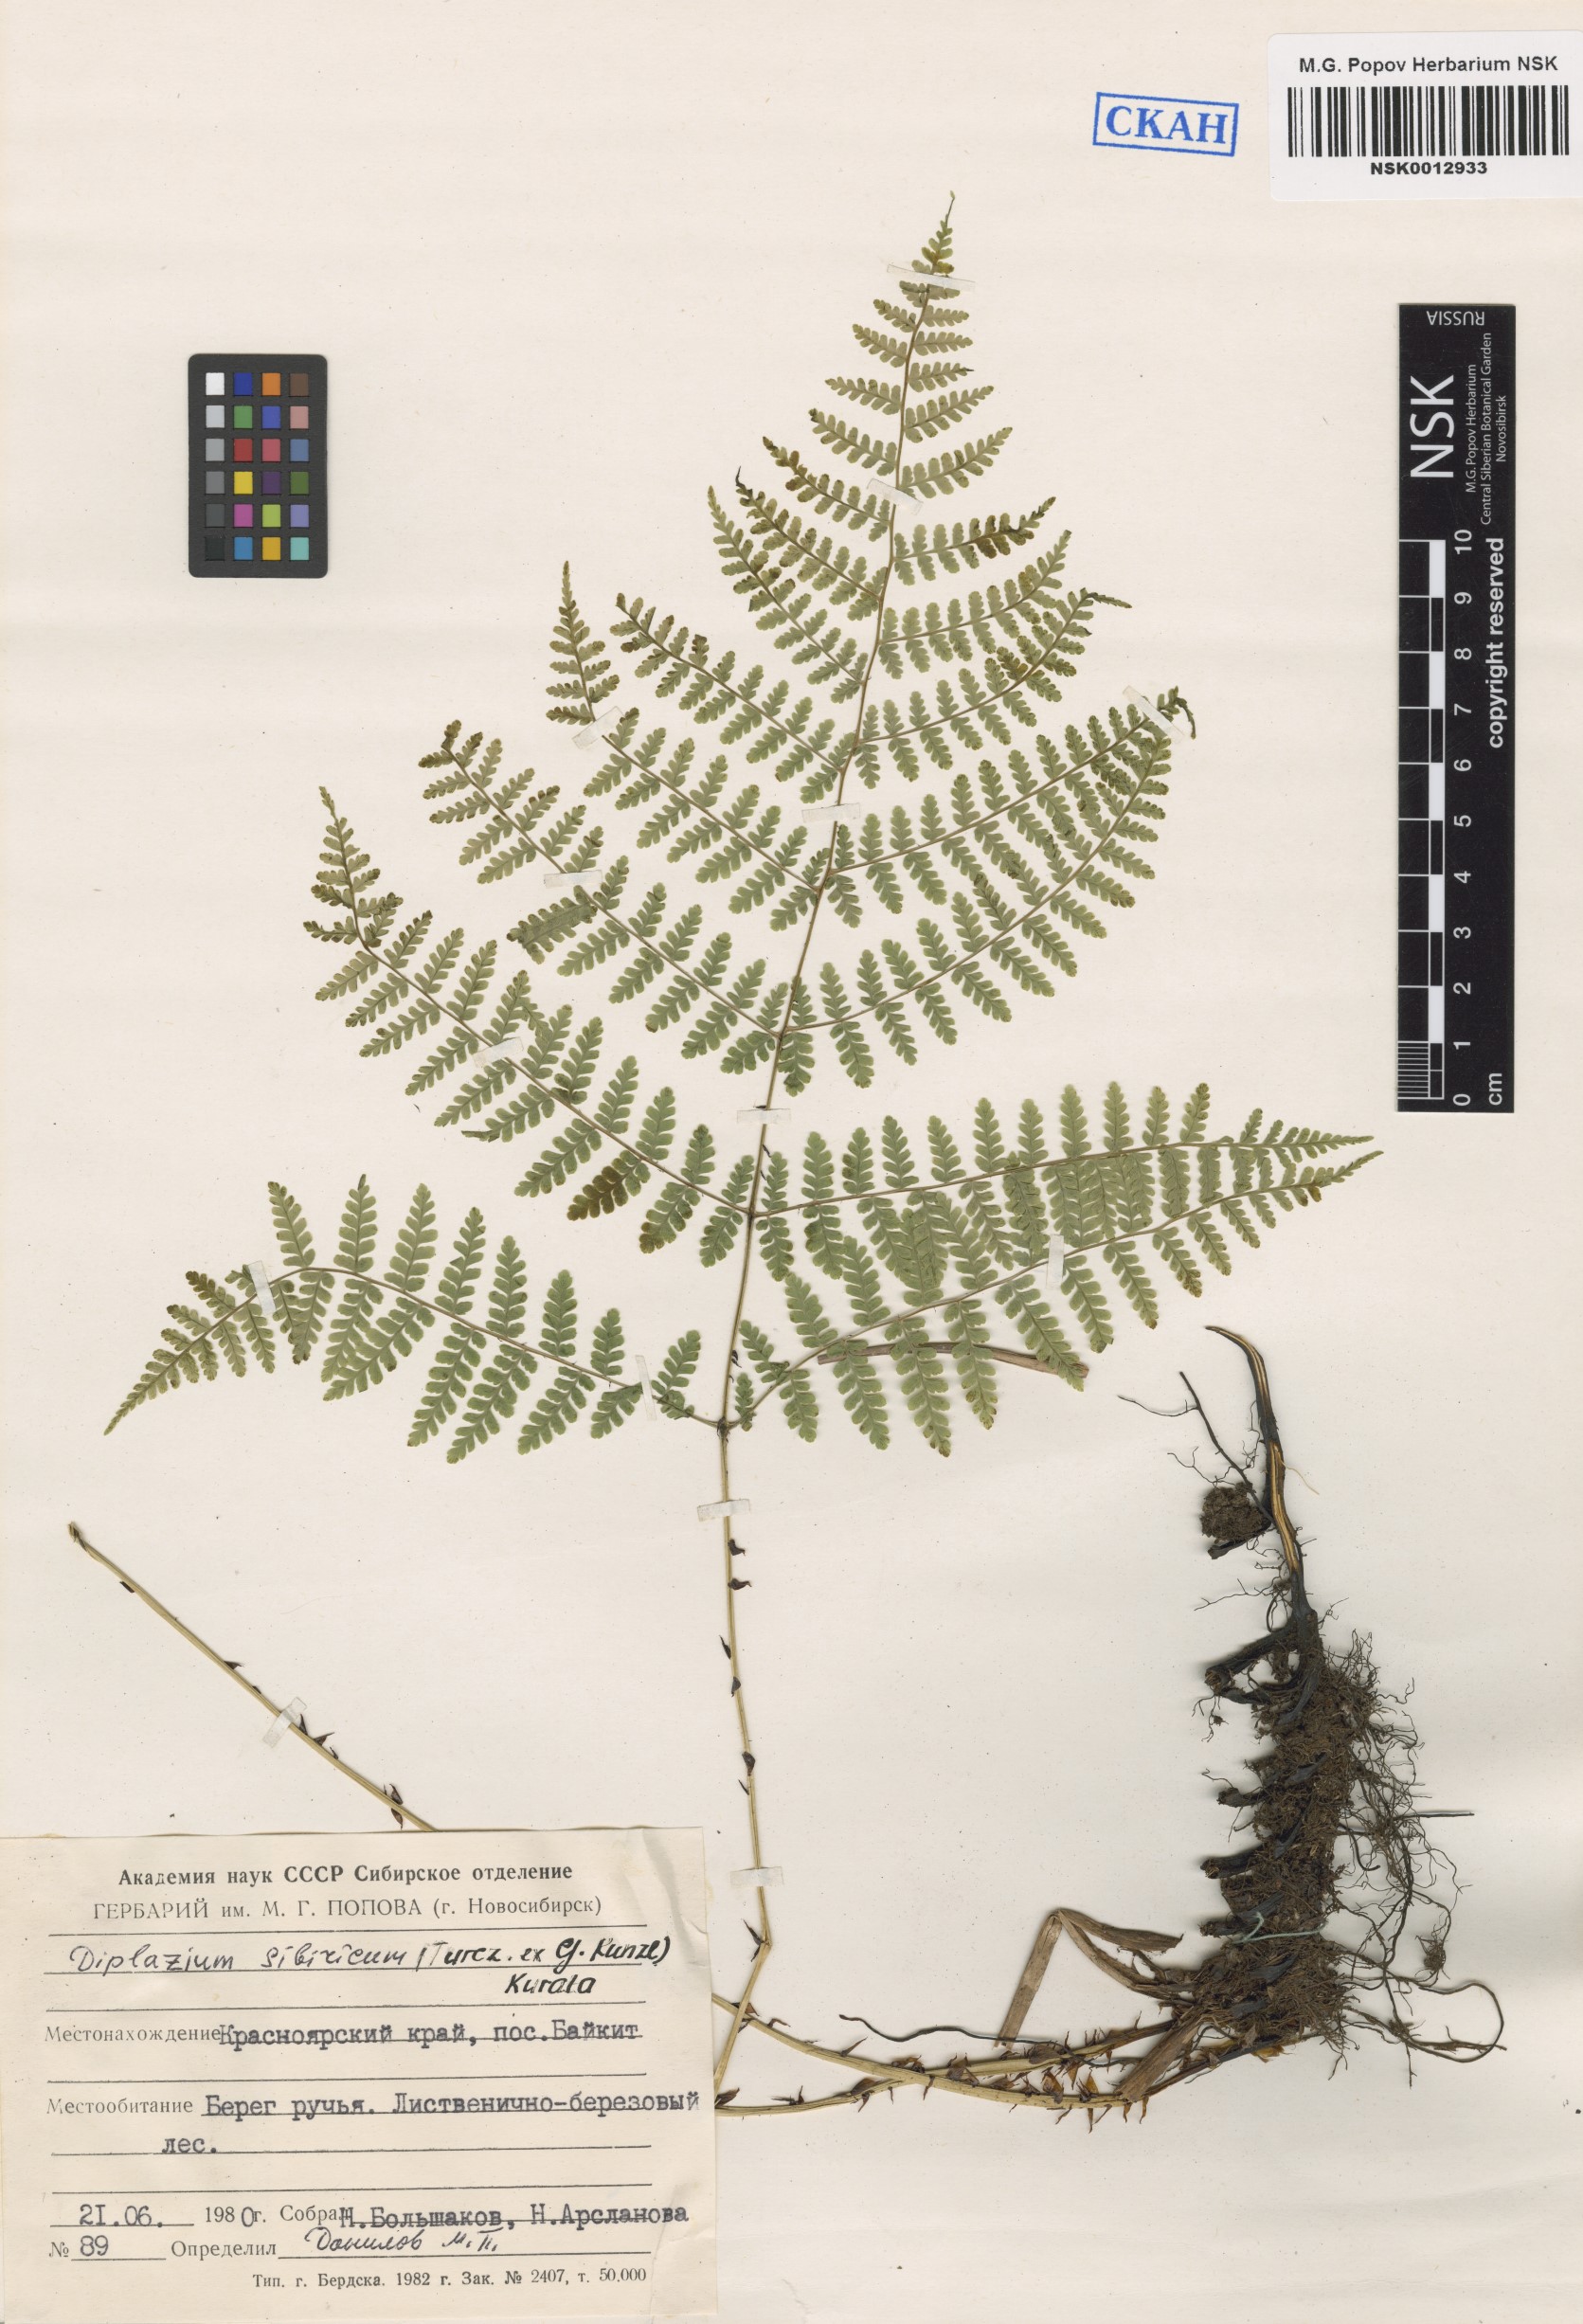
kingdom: Plantae
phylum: Tracheophyta
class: Polypodiopsida
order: Polypodiales
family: Athyriaceae
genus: Diplazium
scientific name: Diplazium sibiricum
